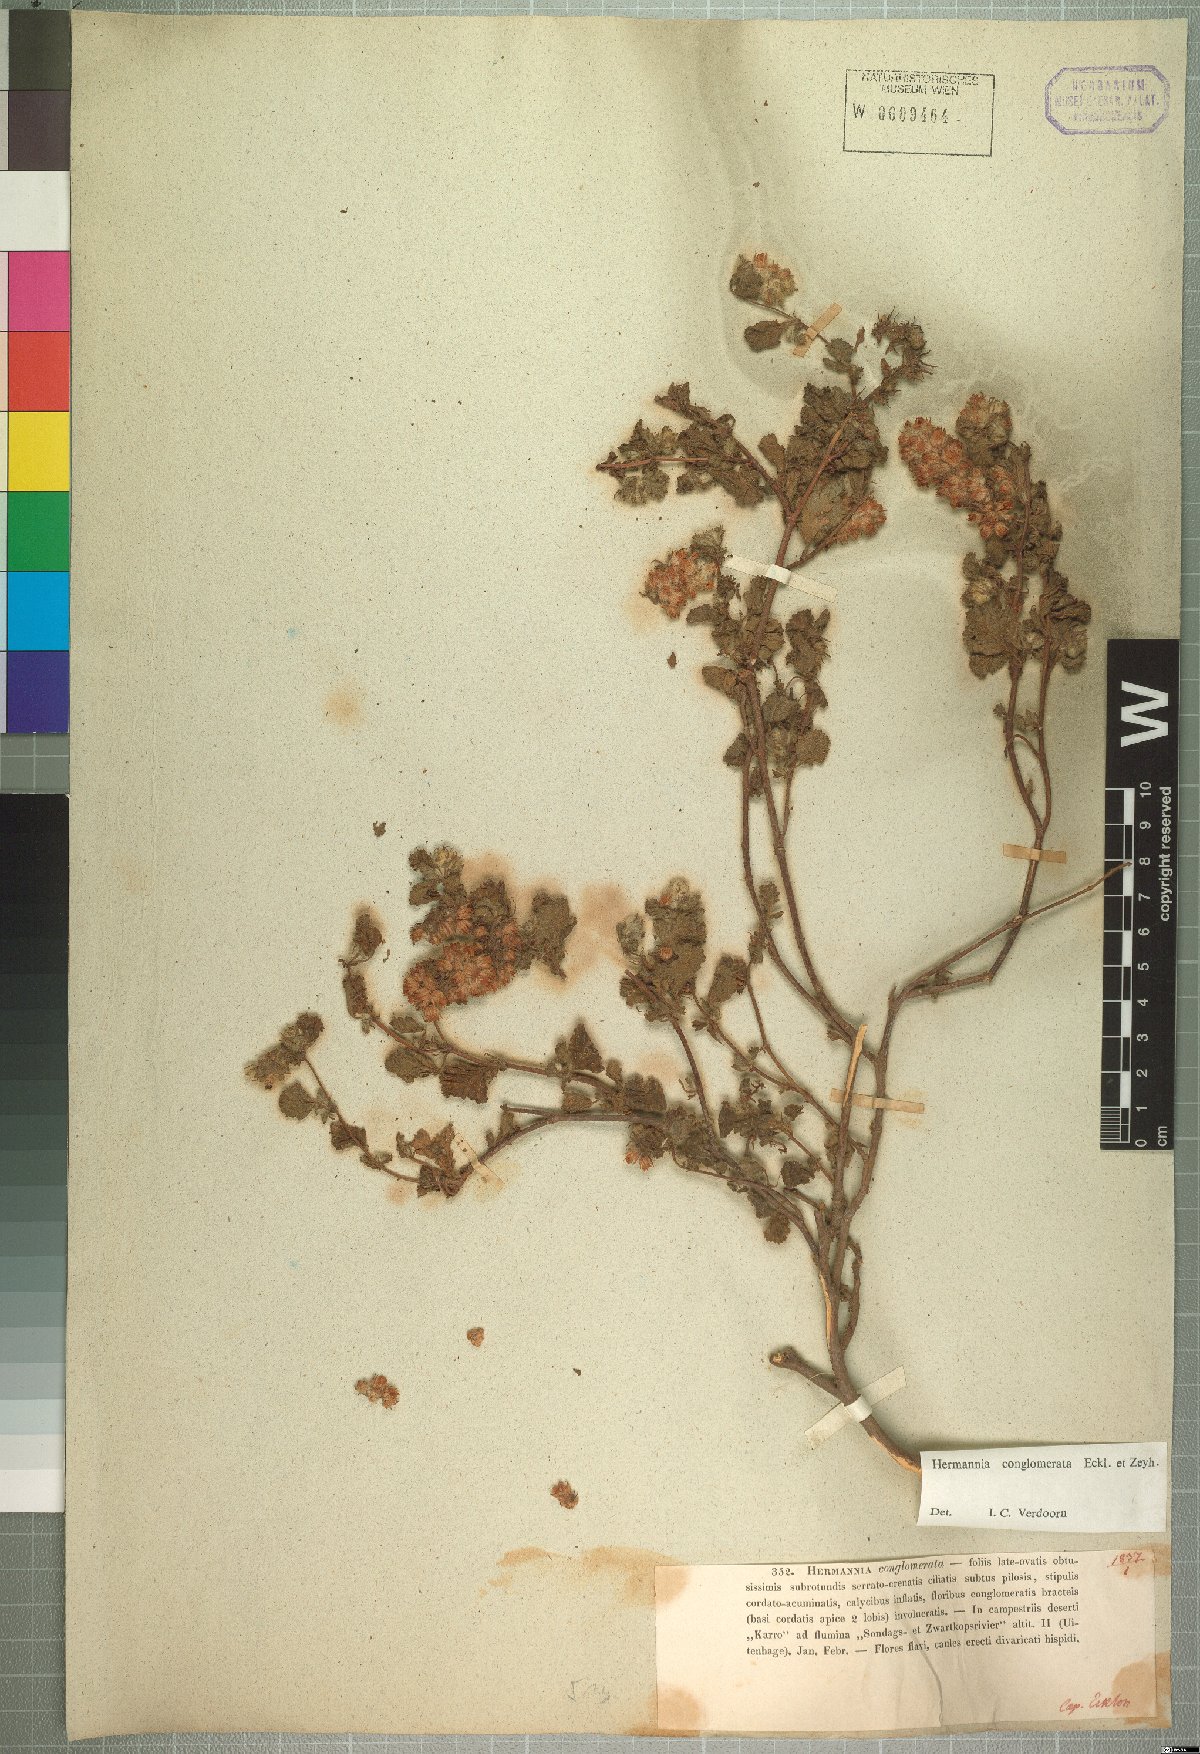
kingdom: Plantae
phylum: Tracheophyta
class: Magnoliopsida
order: Malvales
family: Malvaceae
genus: Hermannia
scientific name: Hermannia conglomerata
